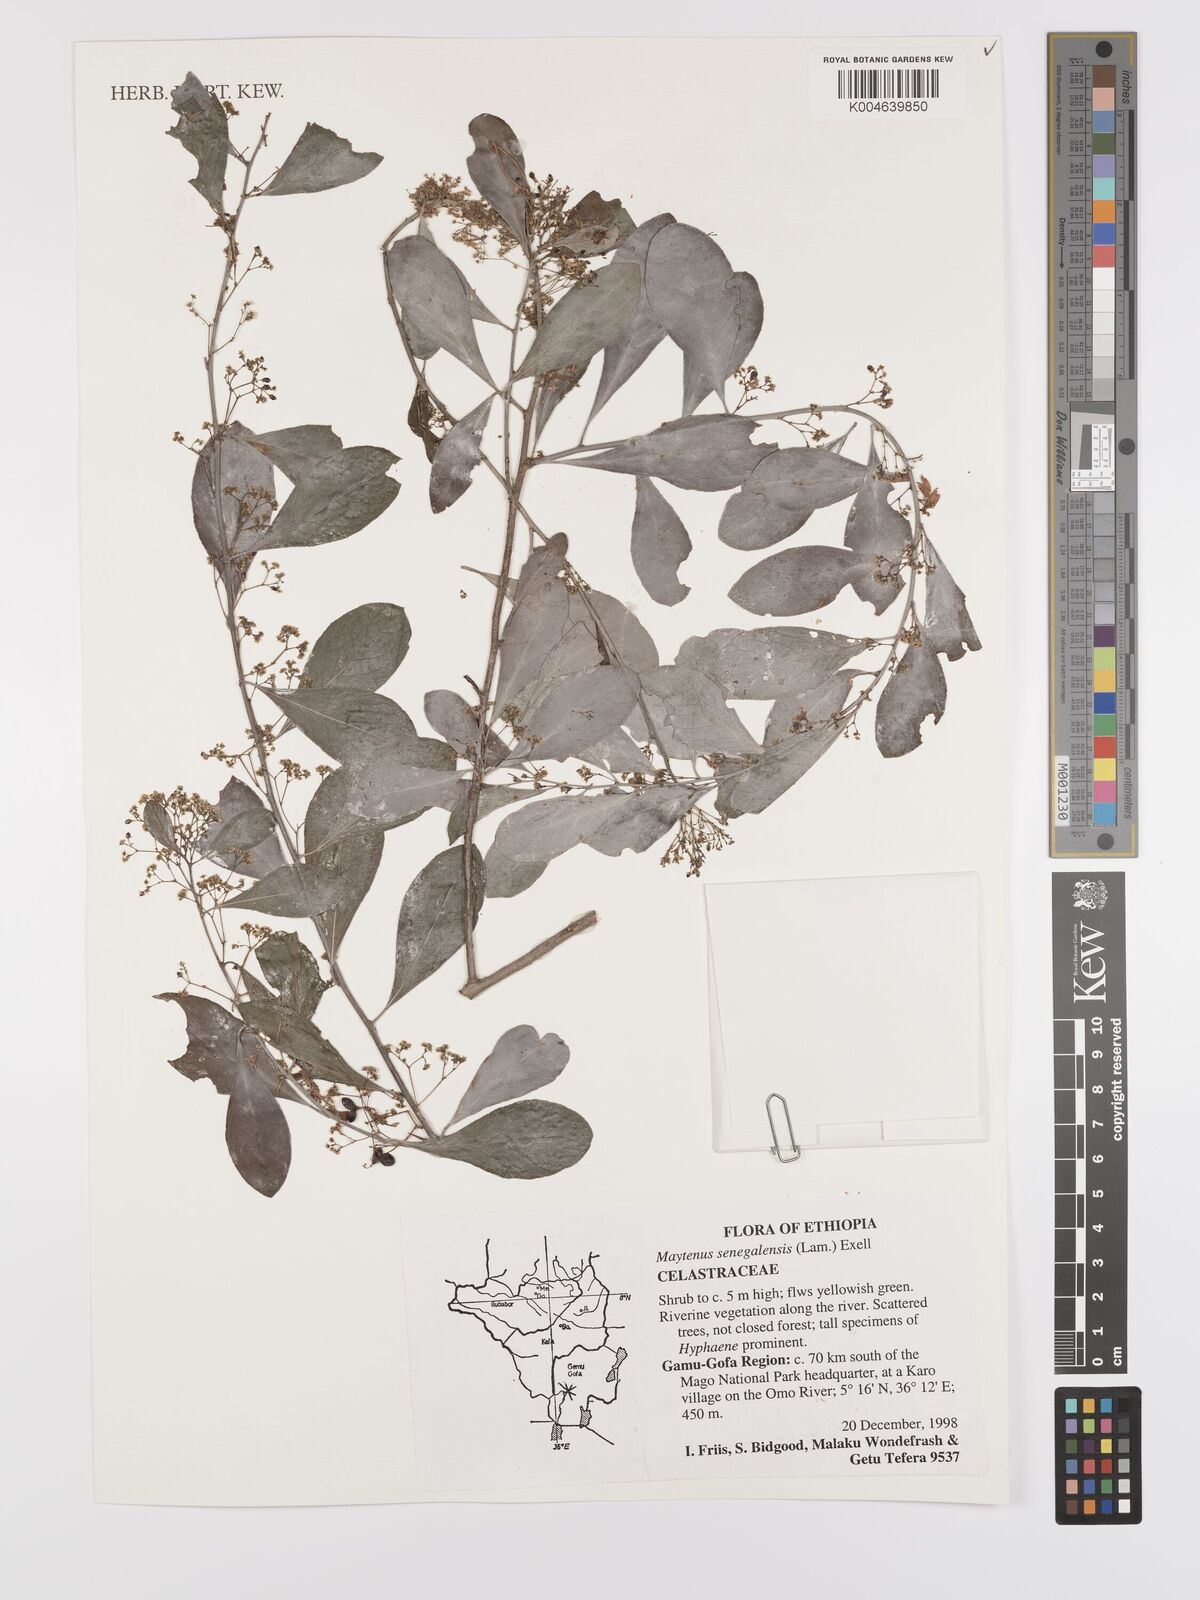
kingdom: Plantae
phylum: Tracheophyta
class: Magnoliopsida
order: Celastrales
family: Celastraceae
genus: Gymnosporia
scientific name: Gymnosporia senegalensis
